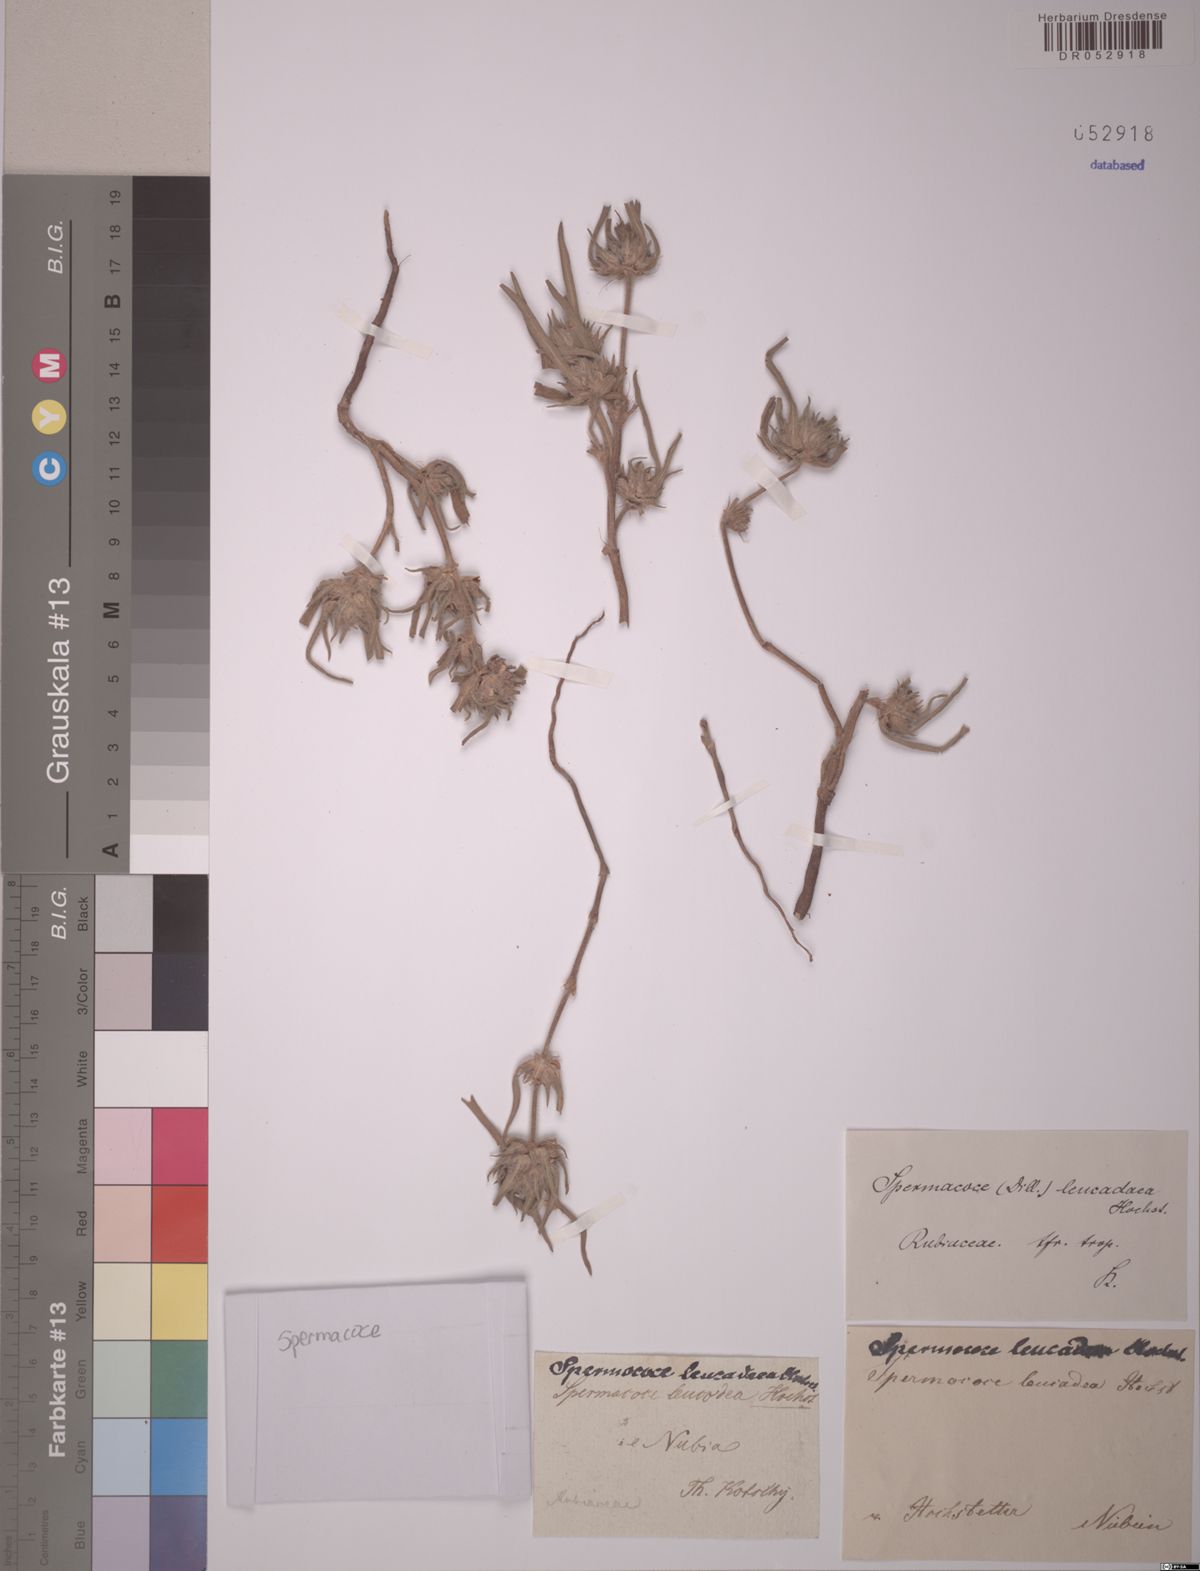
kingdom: Plantae
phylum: Tracheophyta
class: Magnoliopsida
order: Gentianales
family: Rubiaceae
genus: Spermacoce
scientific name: Spermacoce stachydea
